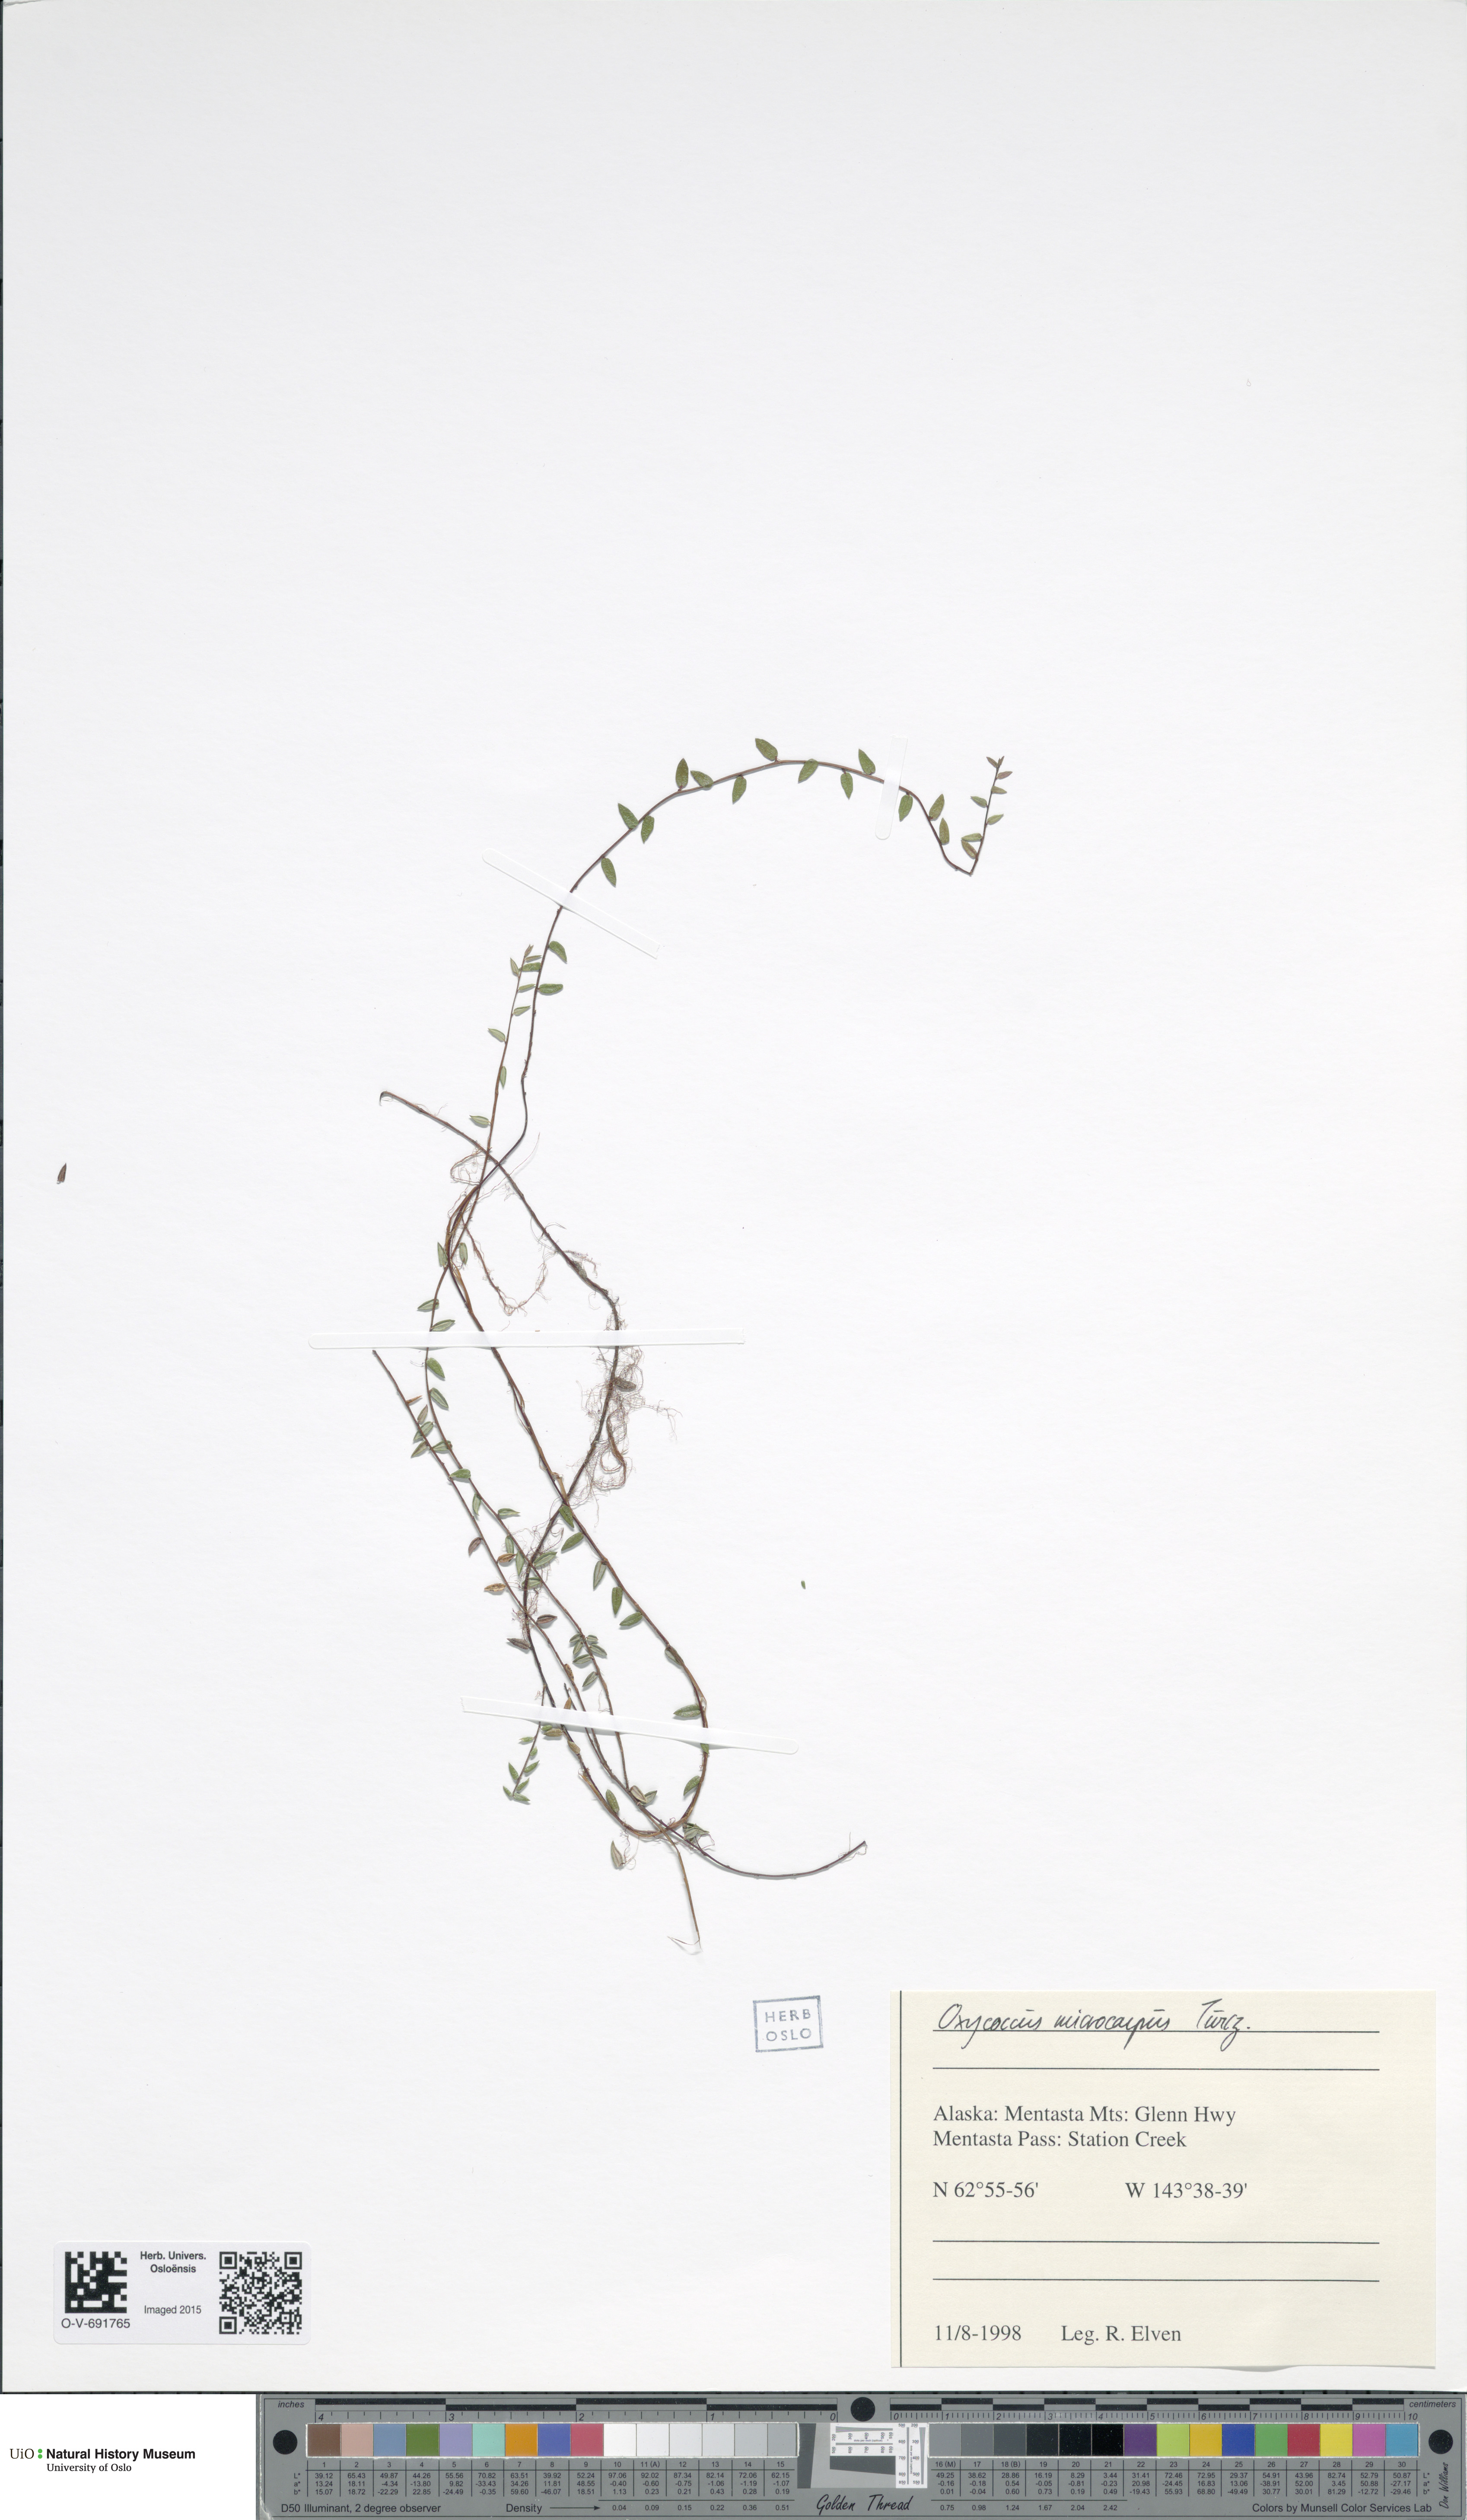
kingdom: Plantae
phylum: Tracheophyta
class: Magnoliopsida
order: Ericales
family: Ericaceae
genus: Vaccinium
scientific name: Vaccinium microcarpum
